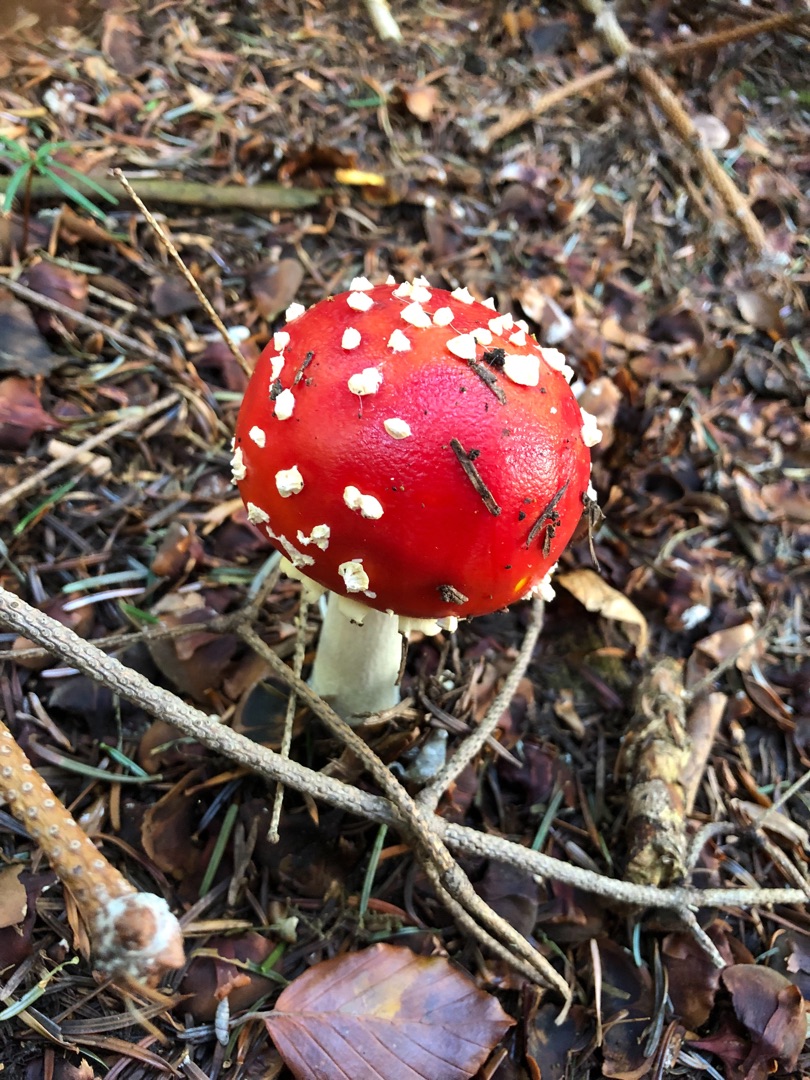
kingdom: Fungi
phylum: Basidiomycota
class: Agaricomycetes
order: Agaricales
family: Amanitaceae
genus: Amanita
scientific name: Amanita muscaria
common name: Rød fluesvamp
